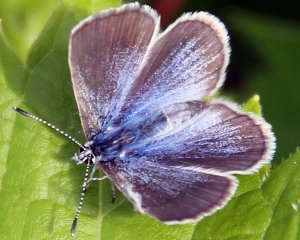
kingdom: Animalia
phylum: Arthropoda
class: Insecta
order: Lepidoptera
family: Lycaenidae
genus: Glaucopsyche
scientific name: Glaucopsyche lygdamus
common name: Silvery Blue
